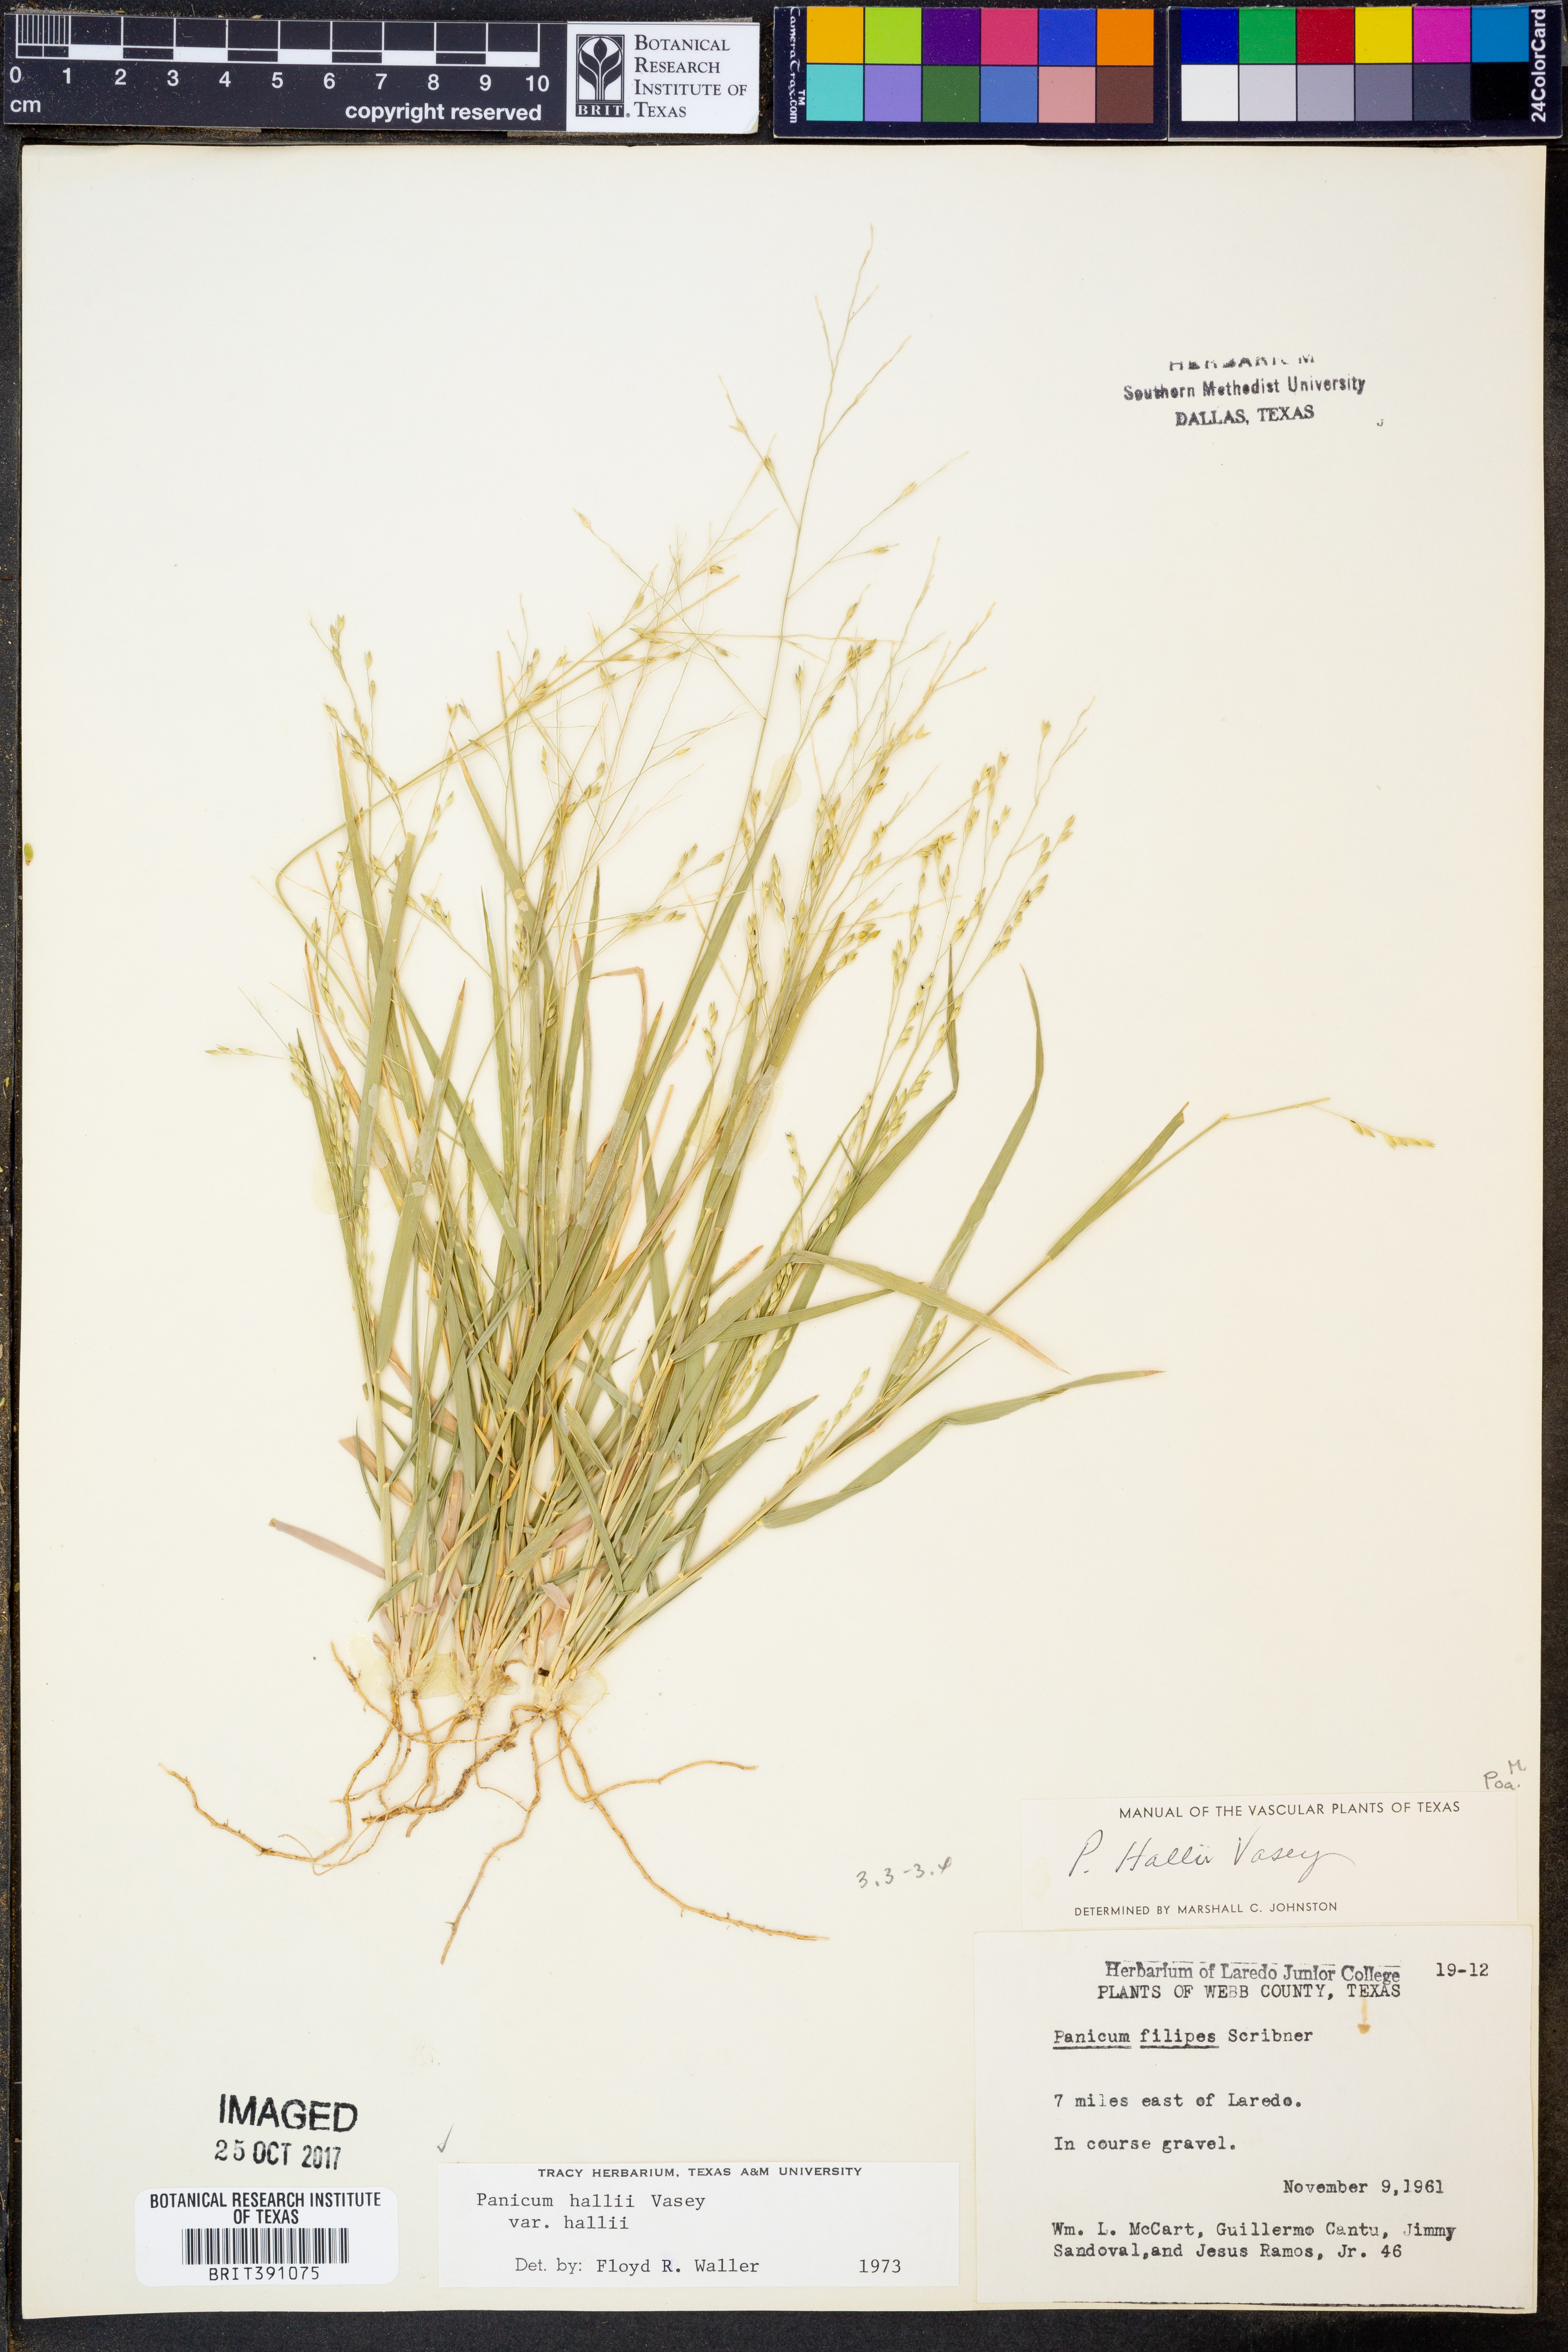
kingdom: Plantae
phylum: Tracheophyta
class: Liliopsida
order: Poales
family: Poaceae
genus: Panicum
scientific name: Panicum hallii
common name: Hall's witchgrass
